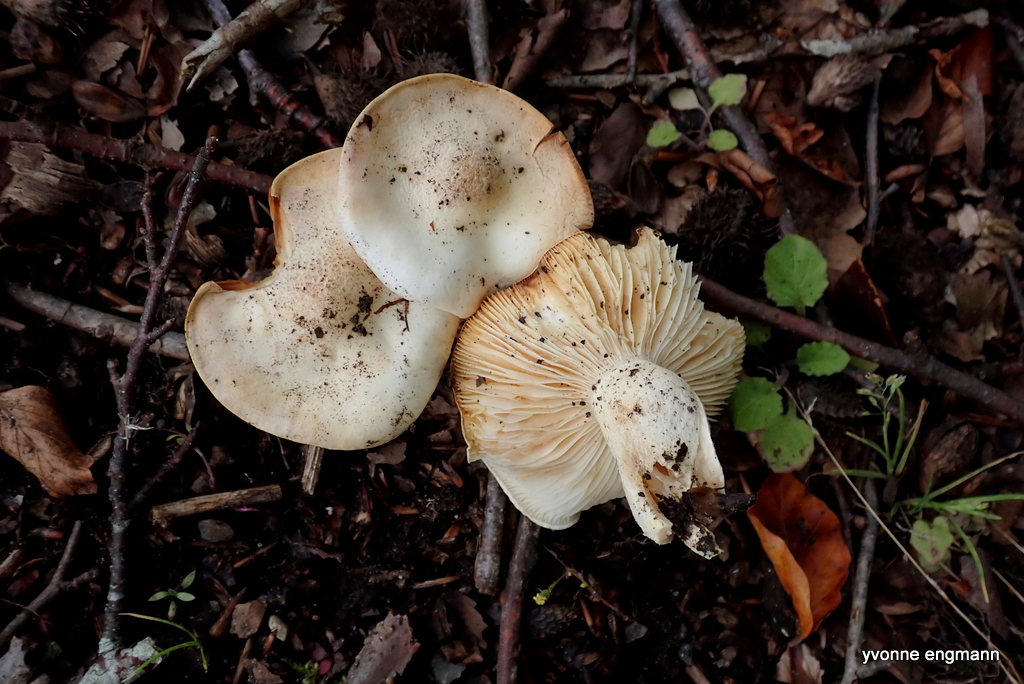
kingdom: Fungi
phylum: Basidiomycota
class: Agaricomycetes
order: Agaricales
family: Hygrophoraceae
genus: Hygrophorus
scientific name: Hygrophorus discoxanthus
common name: ildelugtende sneglehat
